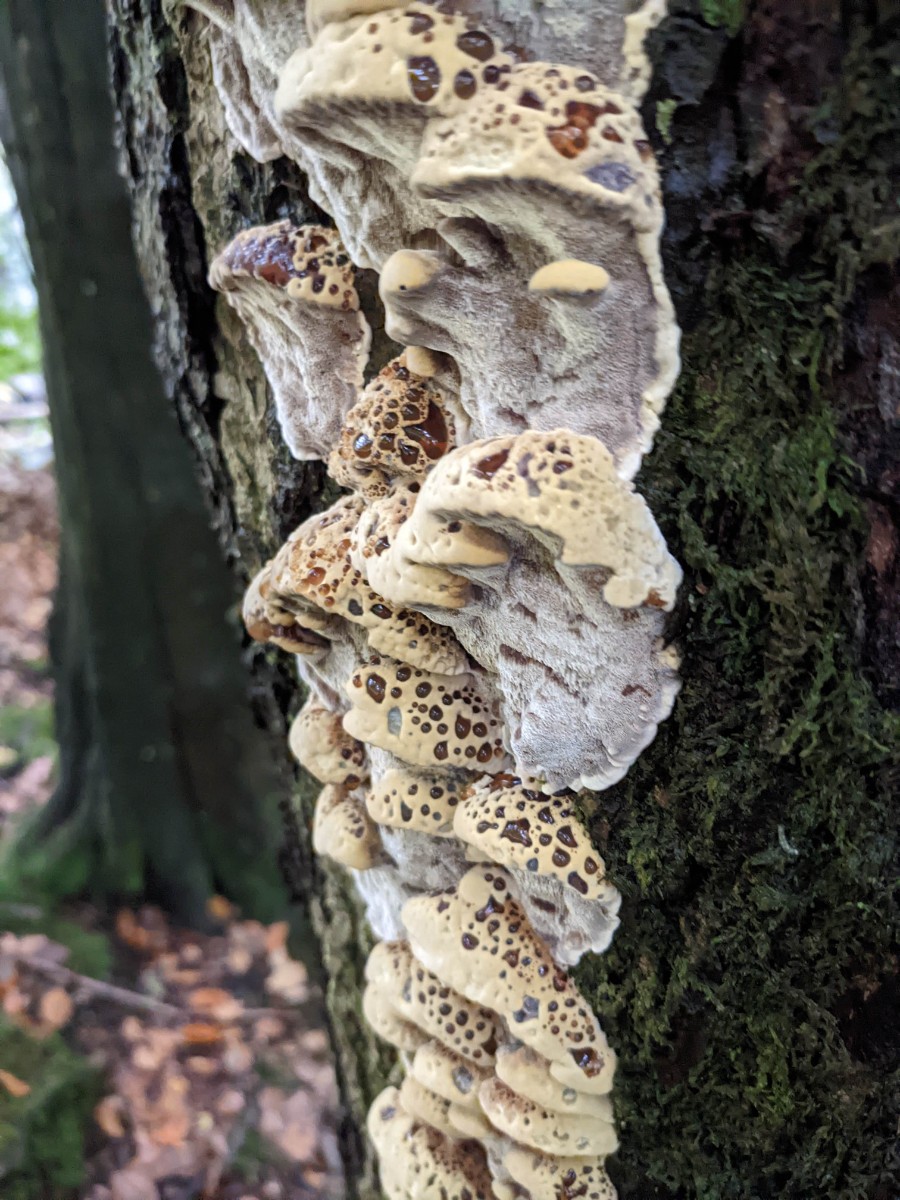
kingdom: Fungi
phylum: Basidiomycota
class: Agaricomycetes
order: Hymenochaetales
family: Hymenochaetaceae
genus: Xanthoporia
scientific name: Xanthoporia radiata
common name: elle-spejlporesvamp
